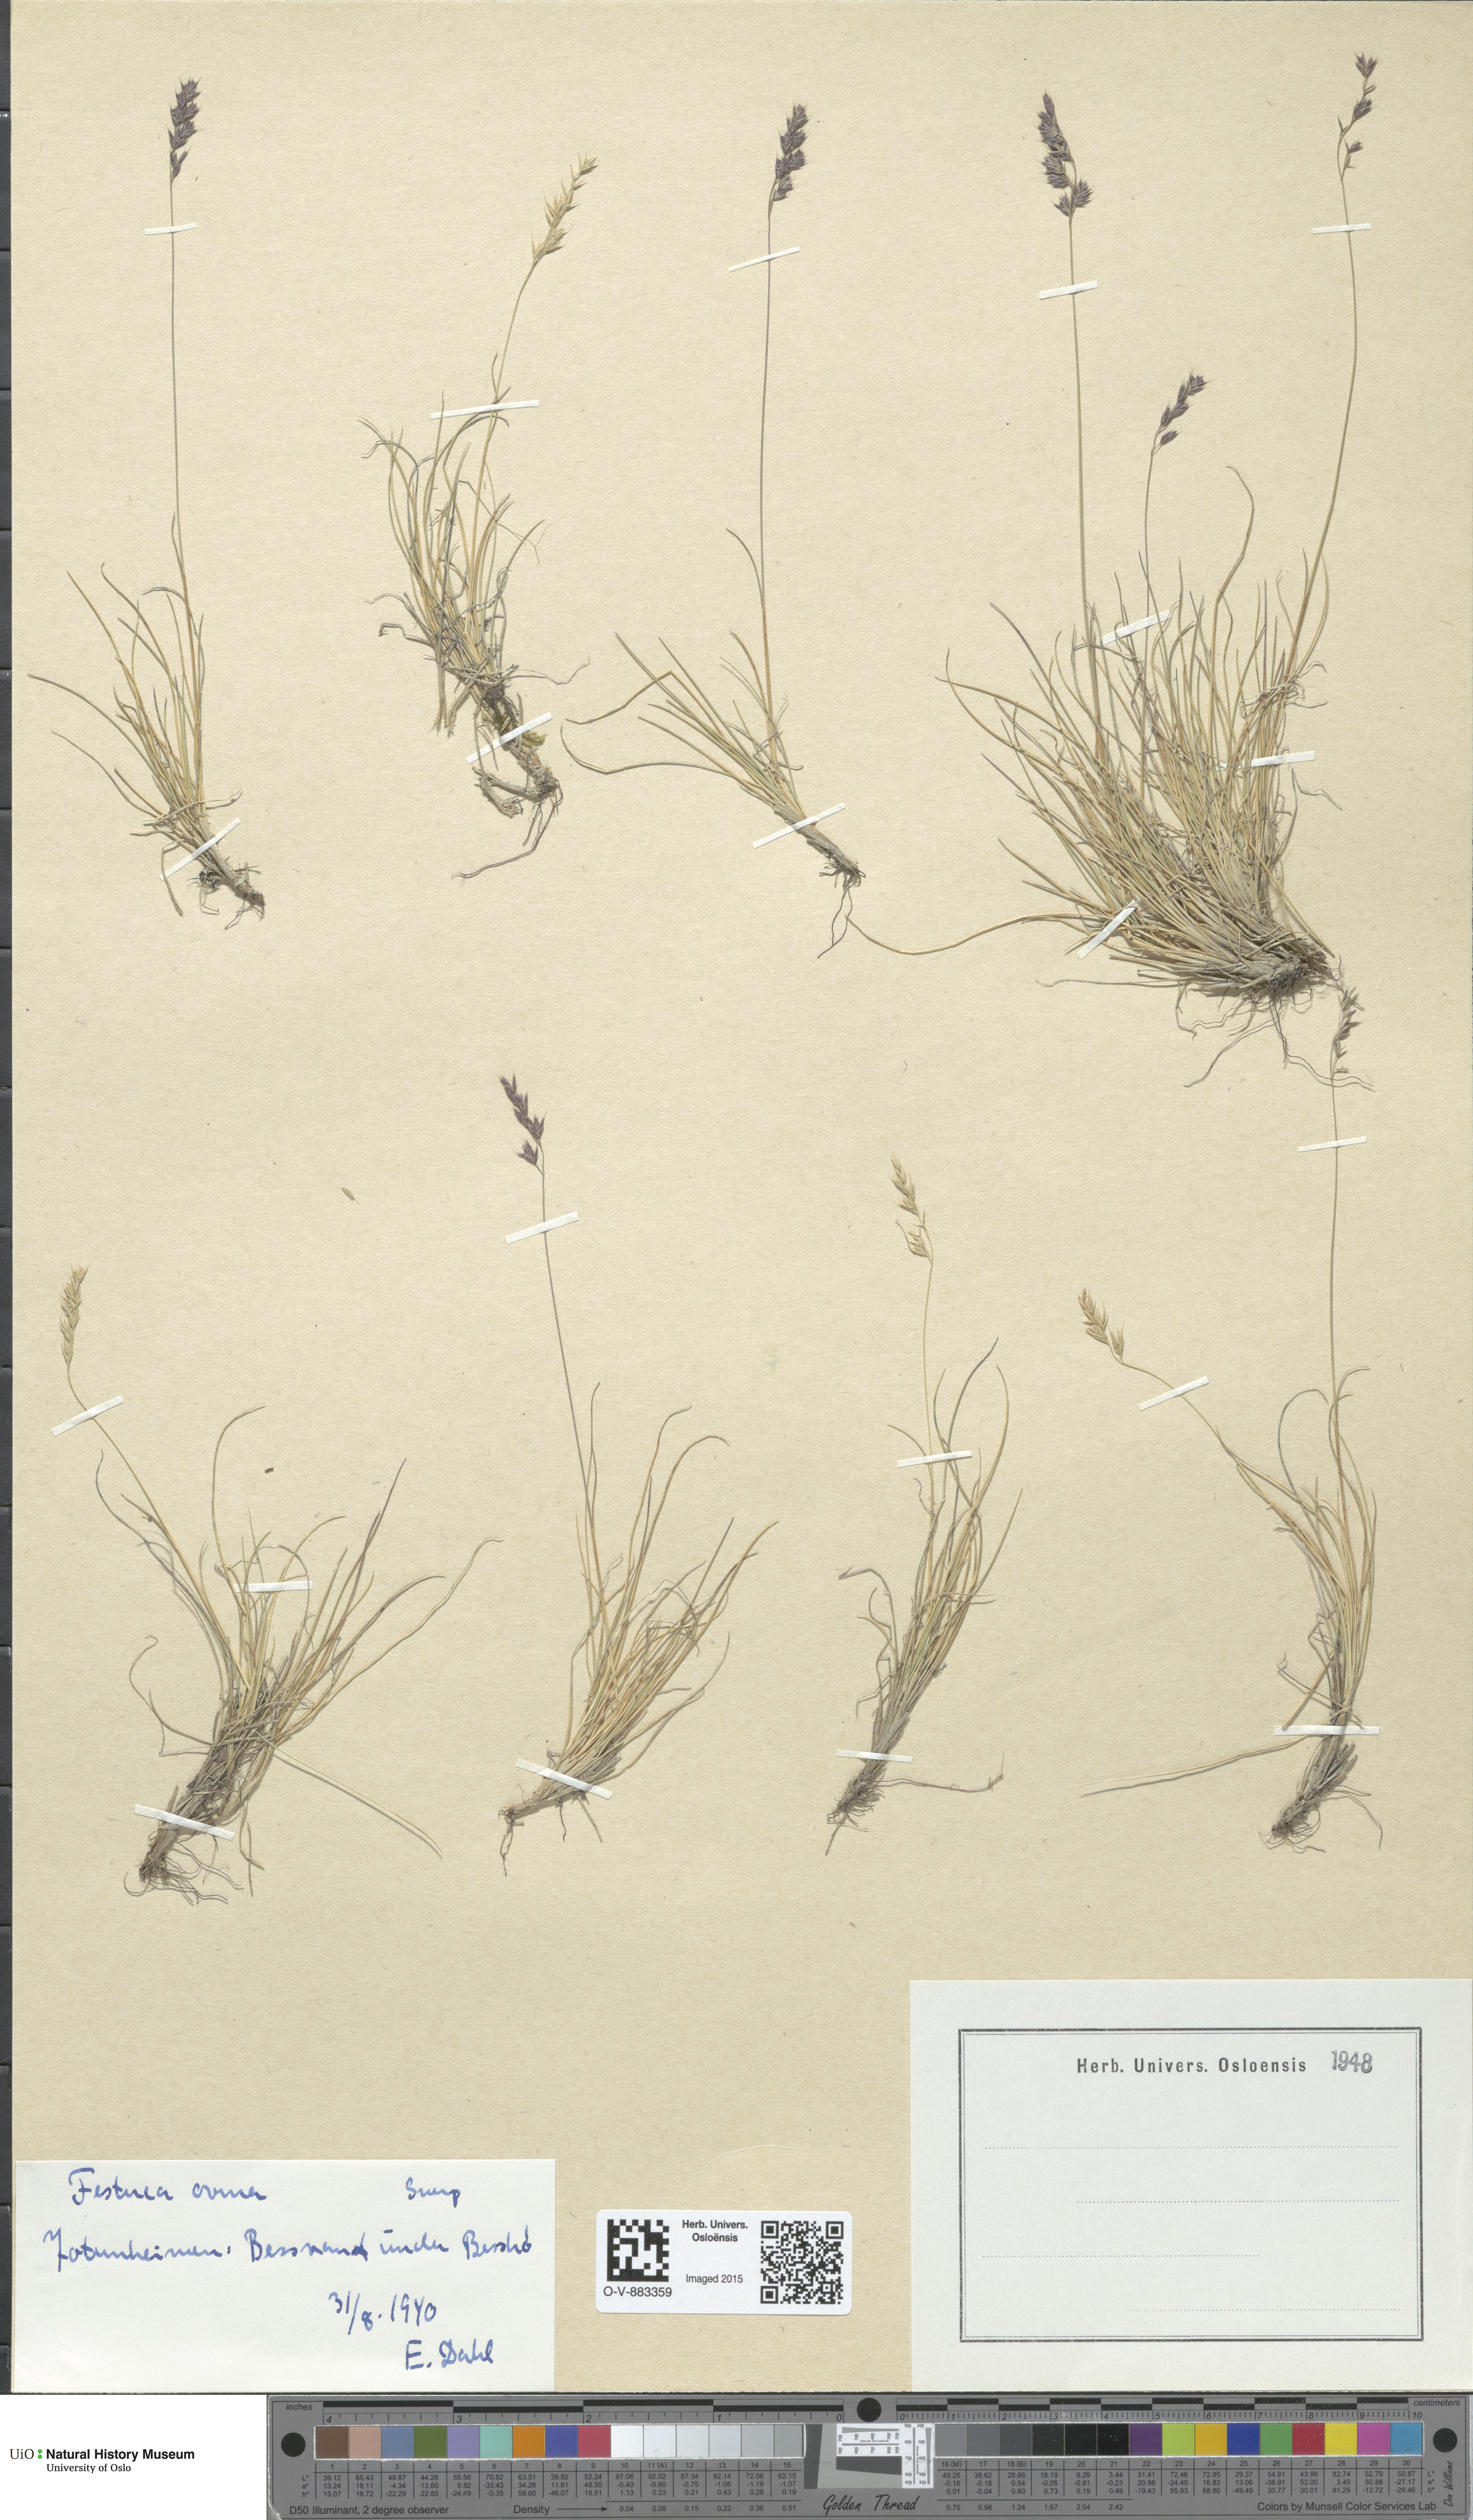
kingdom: Plantae
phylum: Tracheophyta
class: Liliopsida
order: Poales
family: Poaceae
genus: Festuca
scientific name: Festuca ovina
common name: Sheep fescue
